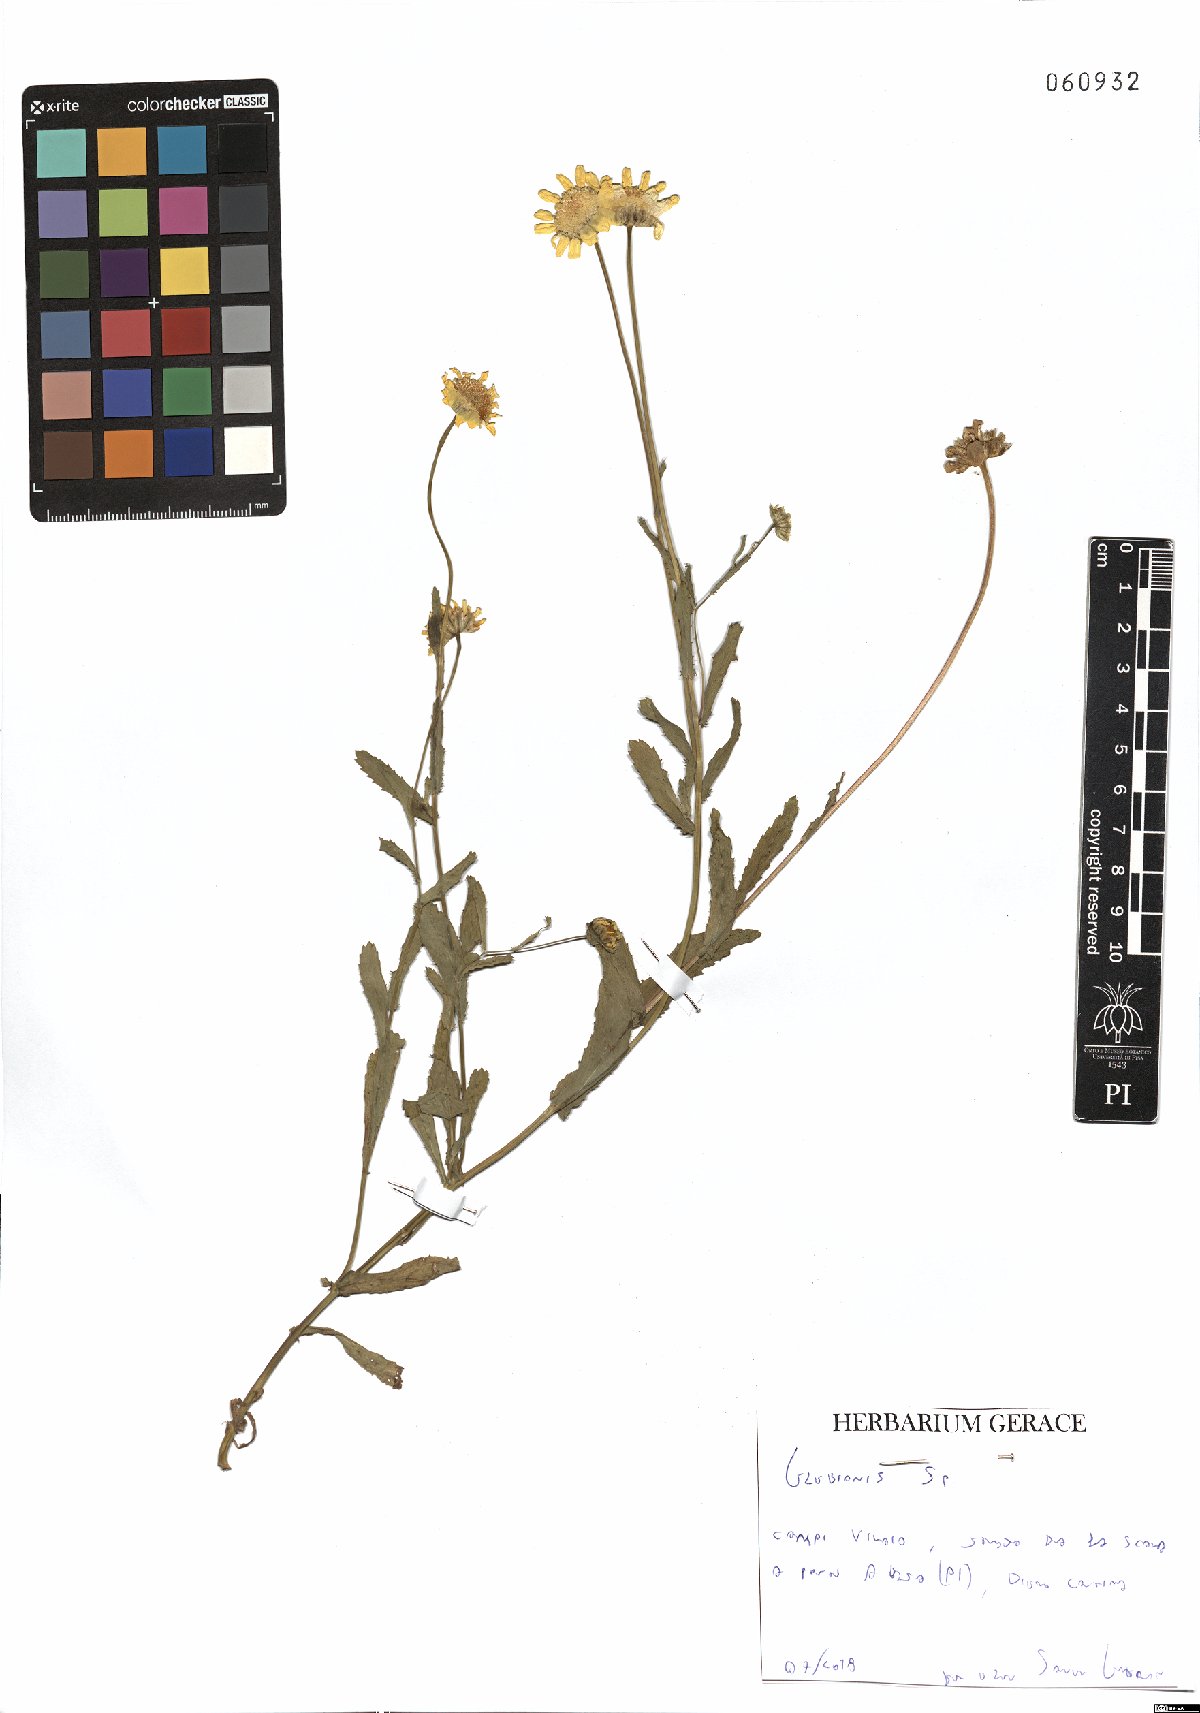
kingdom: Plantae
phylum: Tracheophyta
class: Magnoliopsida
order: Asterales
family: Asteraceae
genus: Glebionis
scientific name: Glebionis
